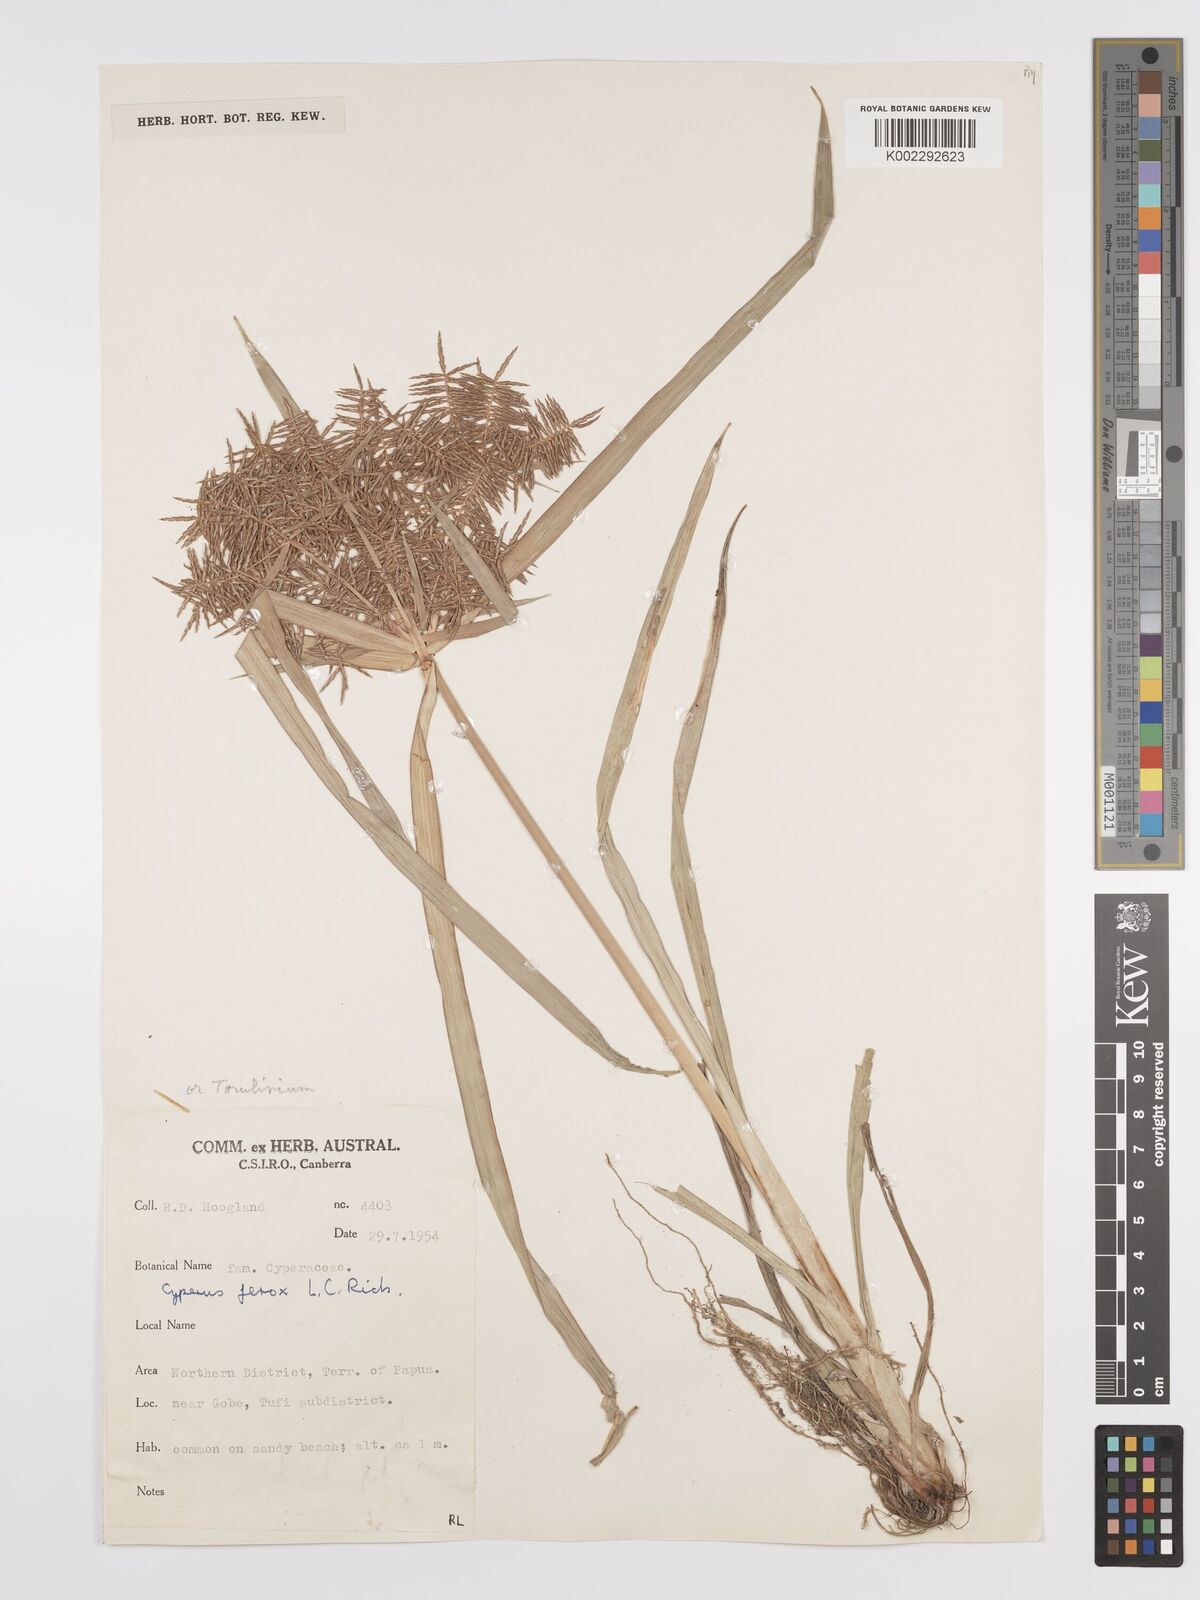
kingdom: Plantae
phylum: Tracheophyta
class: Liliopsida
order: Poales
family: Cyperaceae
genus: Cyperus
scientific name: Cyperus odoratus
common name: Fragrant flatsedge
